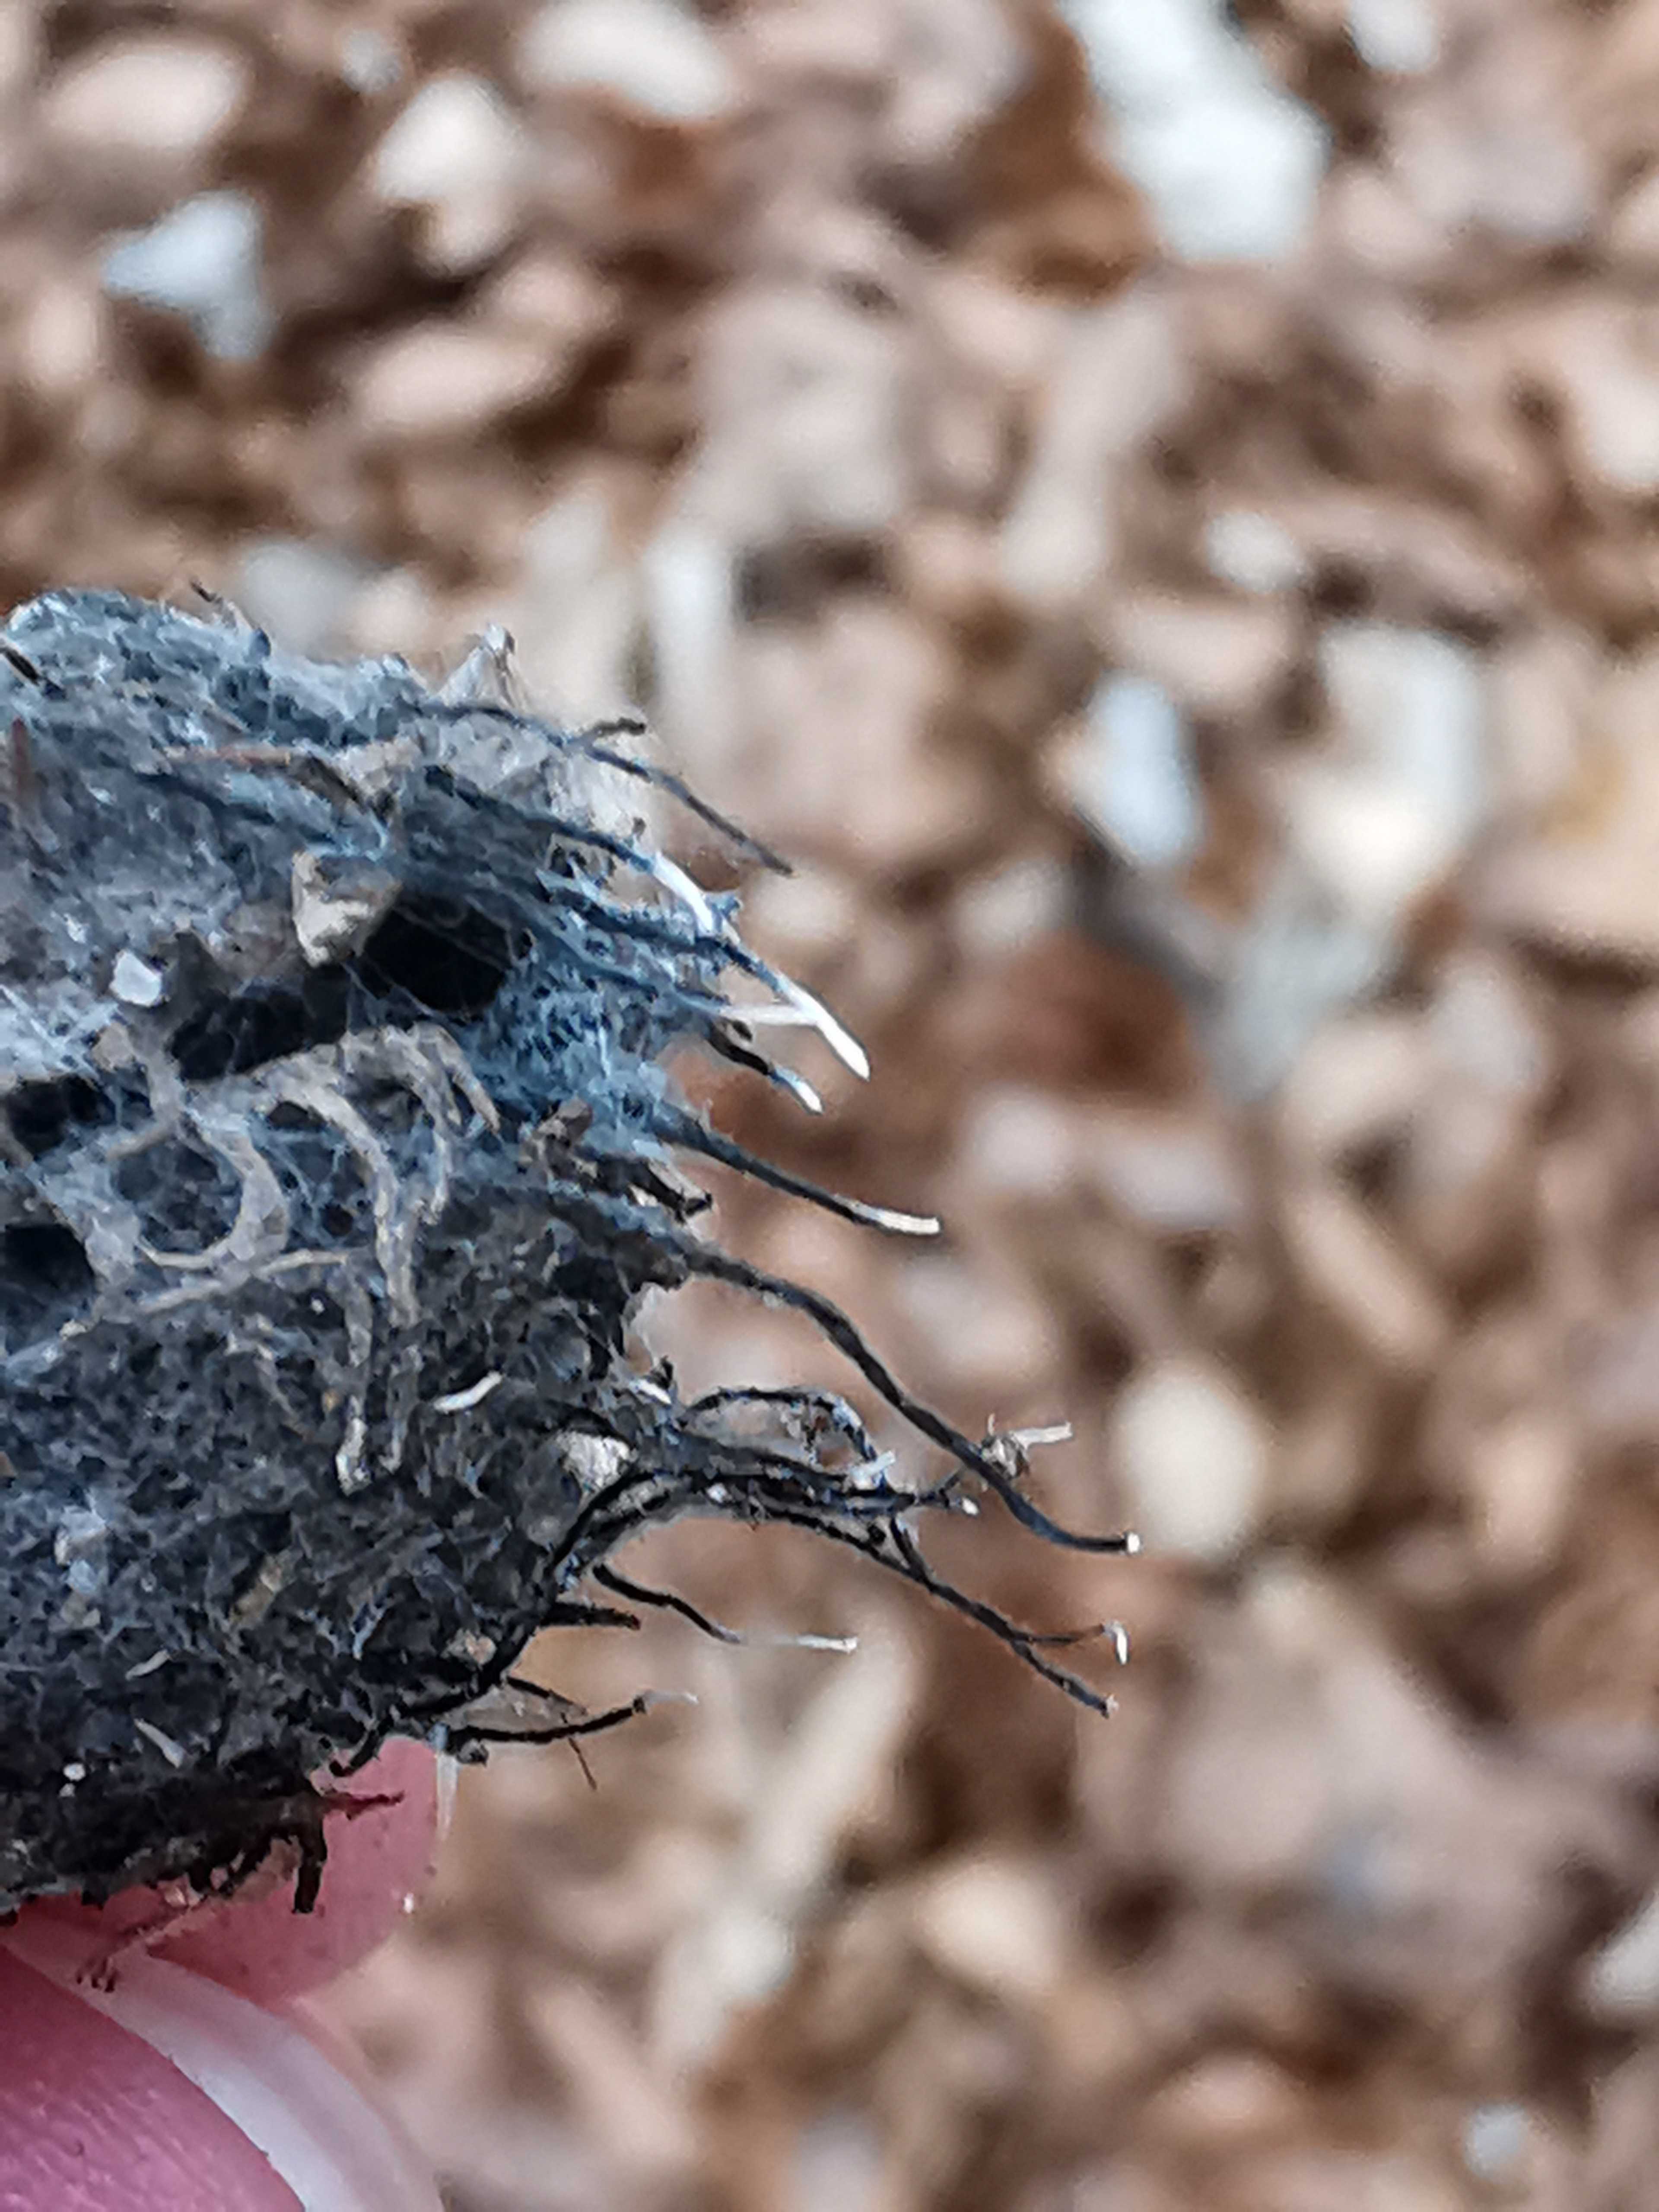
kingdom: Fungi
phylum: Ascomycota
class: Sordariomycetes
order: Xylariales
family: Xylariaceae
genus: Xylaria
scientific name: Xylaria carpophila
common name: bogskål-stødsvamp
